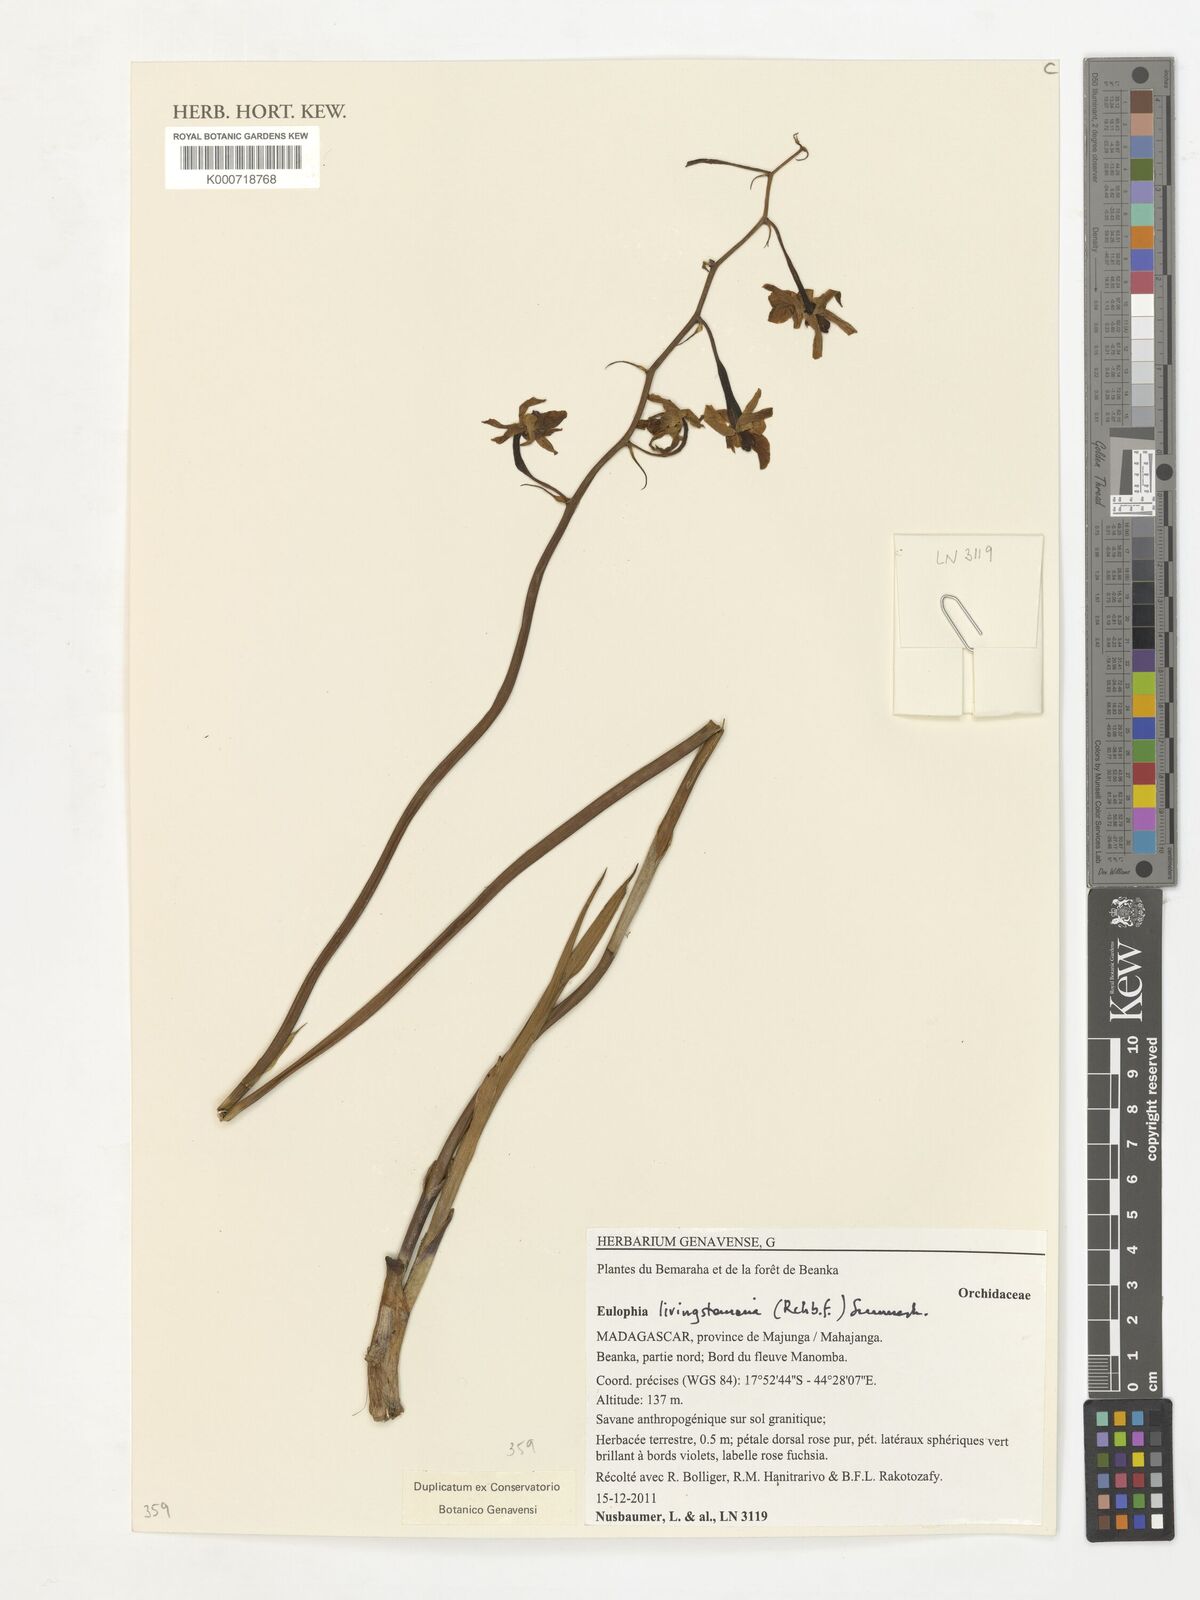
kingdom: Plantae
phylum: Tracheophyta
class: Liliopsida
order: Asparagales
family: Orchidaceae
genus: Eulophia
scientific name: Eulophia
